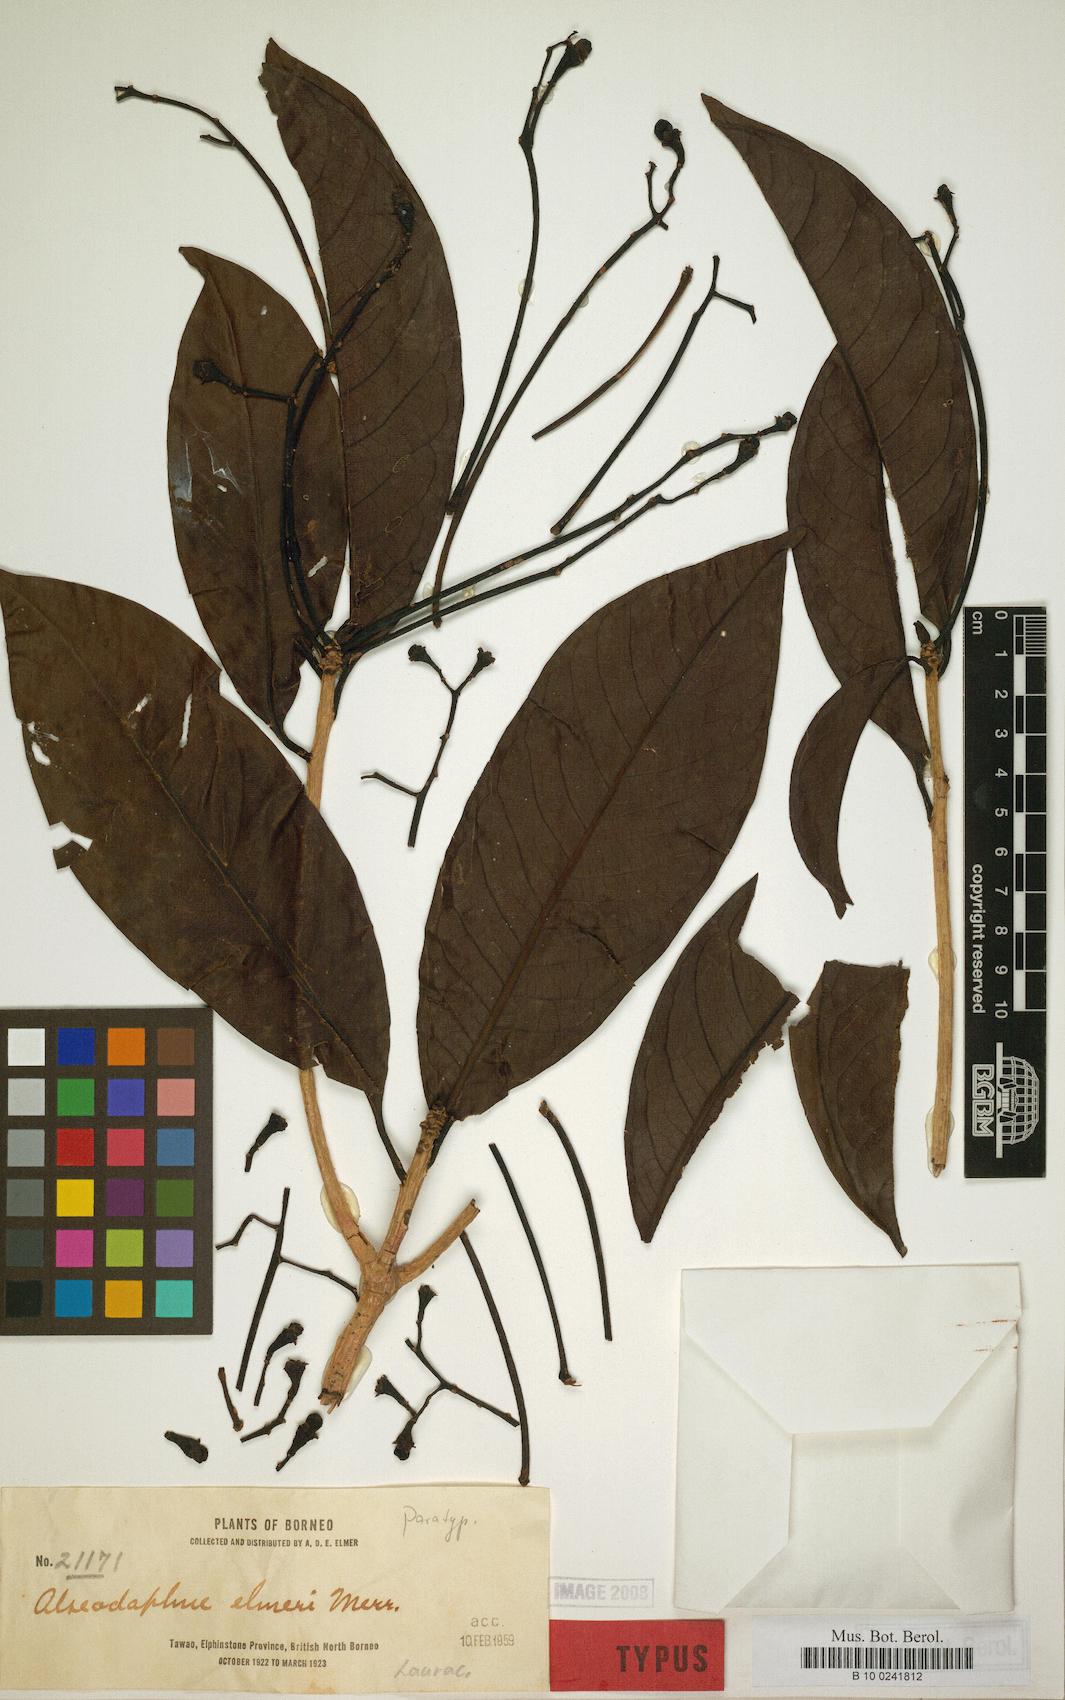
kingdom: Plantae
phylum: Tracheophyta
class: Magnoliopsida
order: Laurales
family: Lauraceae
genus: Alseodaphne
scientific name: Alseodaphne elmeri
